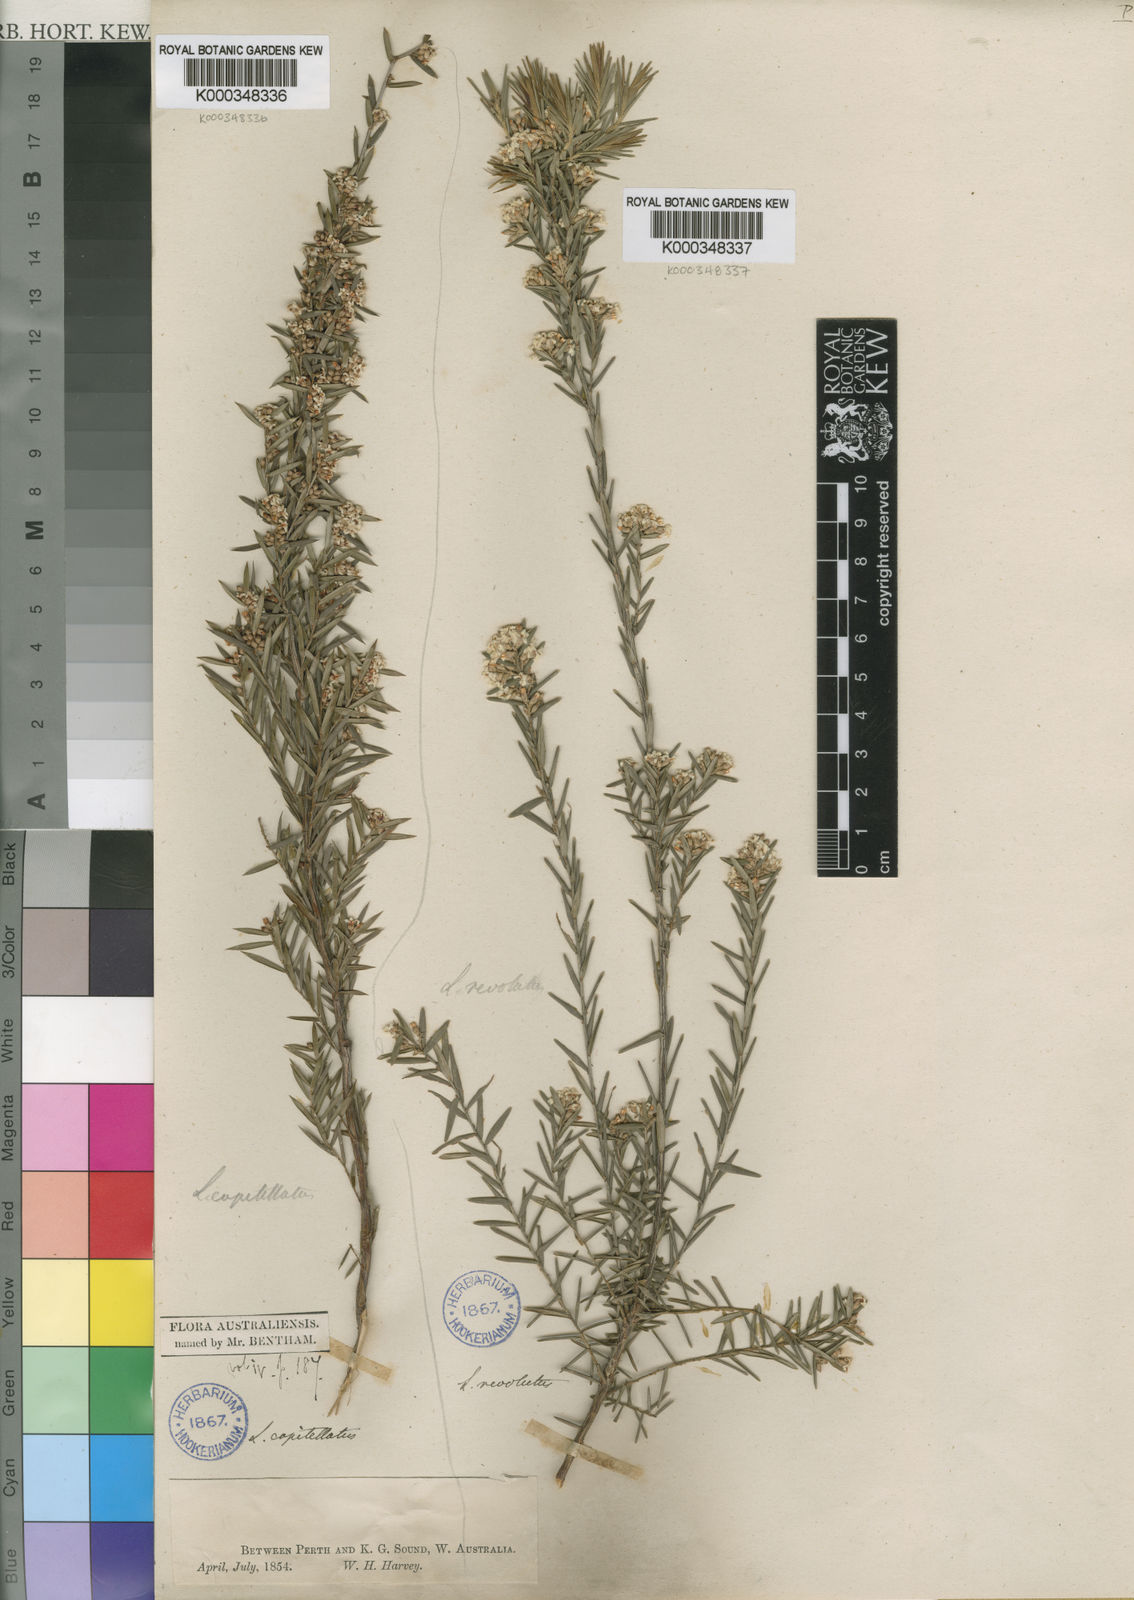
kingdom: Plantae
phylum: Tracheophyta
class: Magnoliopsida
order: Ericales
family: Ericaceae
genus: Leucopogon
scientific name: Leucopogon capitellatus
